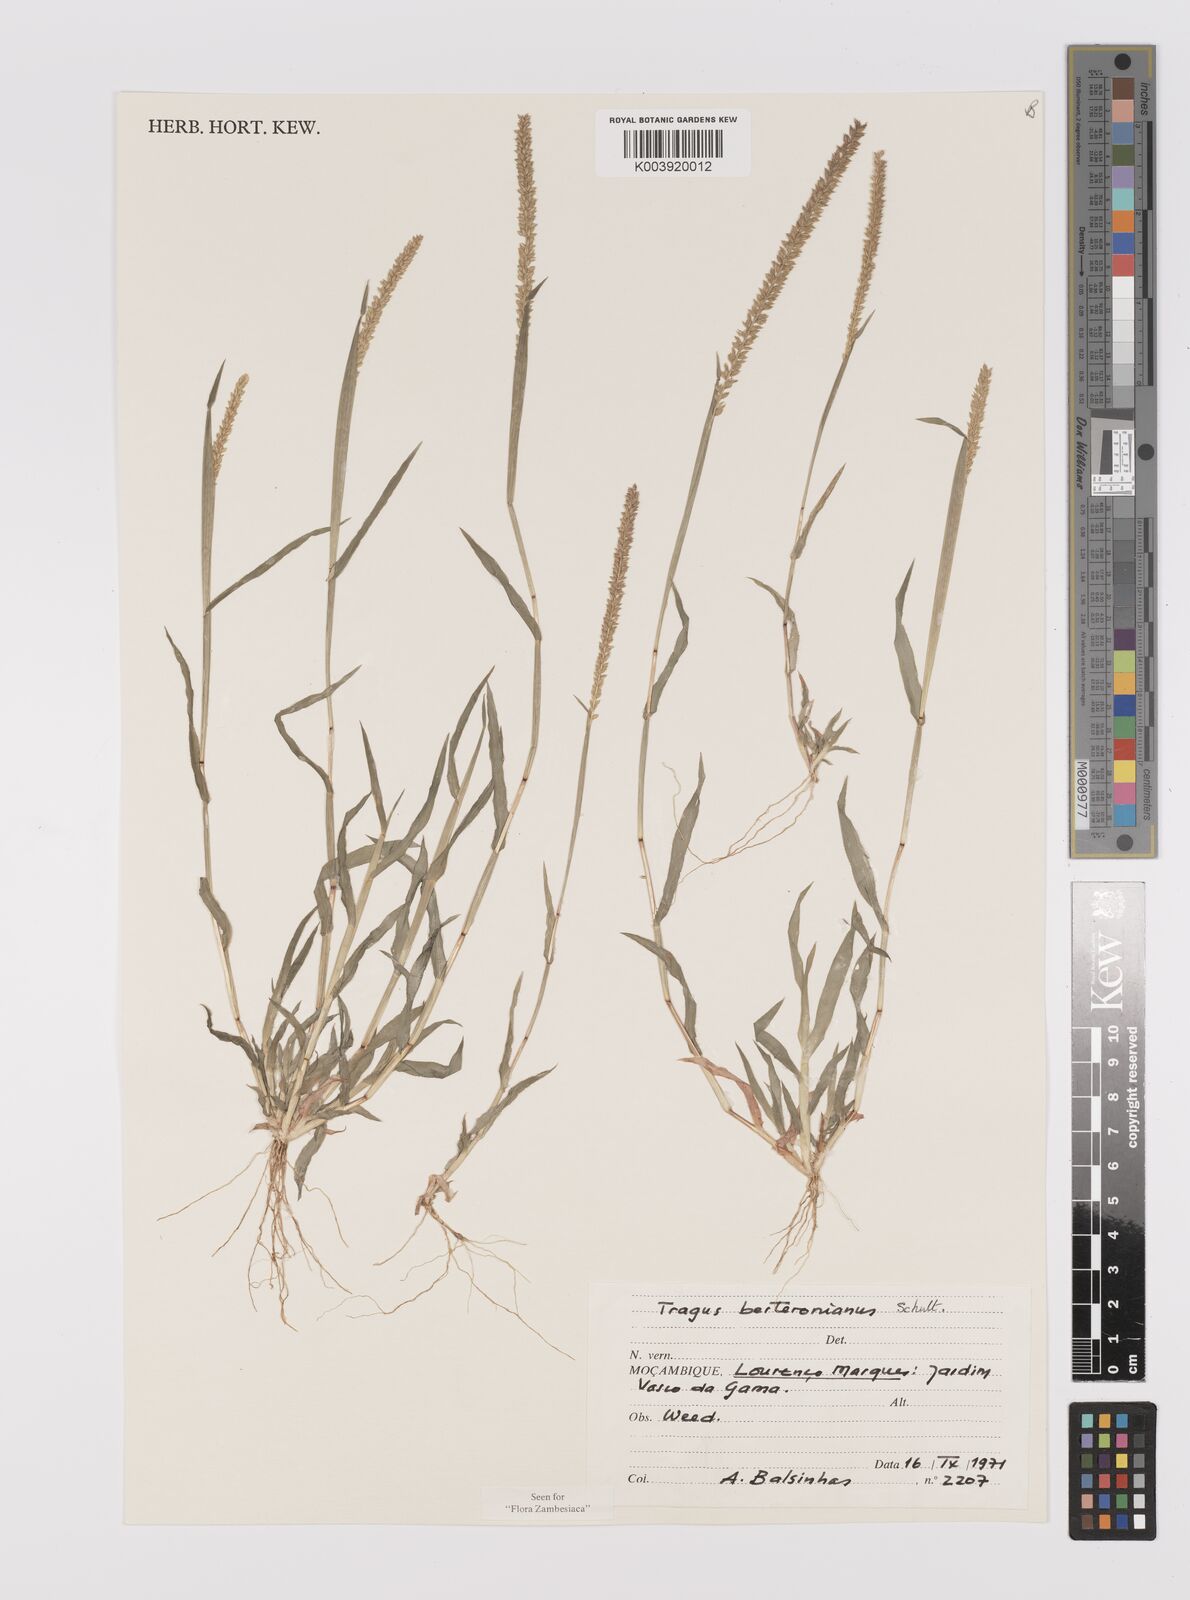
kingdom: Plantae
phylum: Tracheophyta
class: Liliopsida
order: Poales
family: Poaceae
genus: Tragus
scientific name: Tragus berteronianus
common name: African bur-grass
